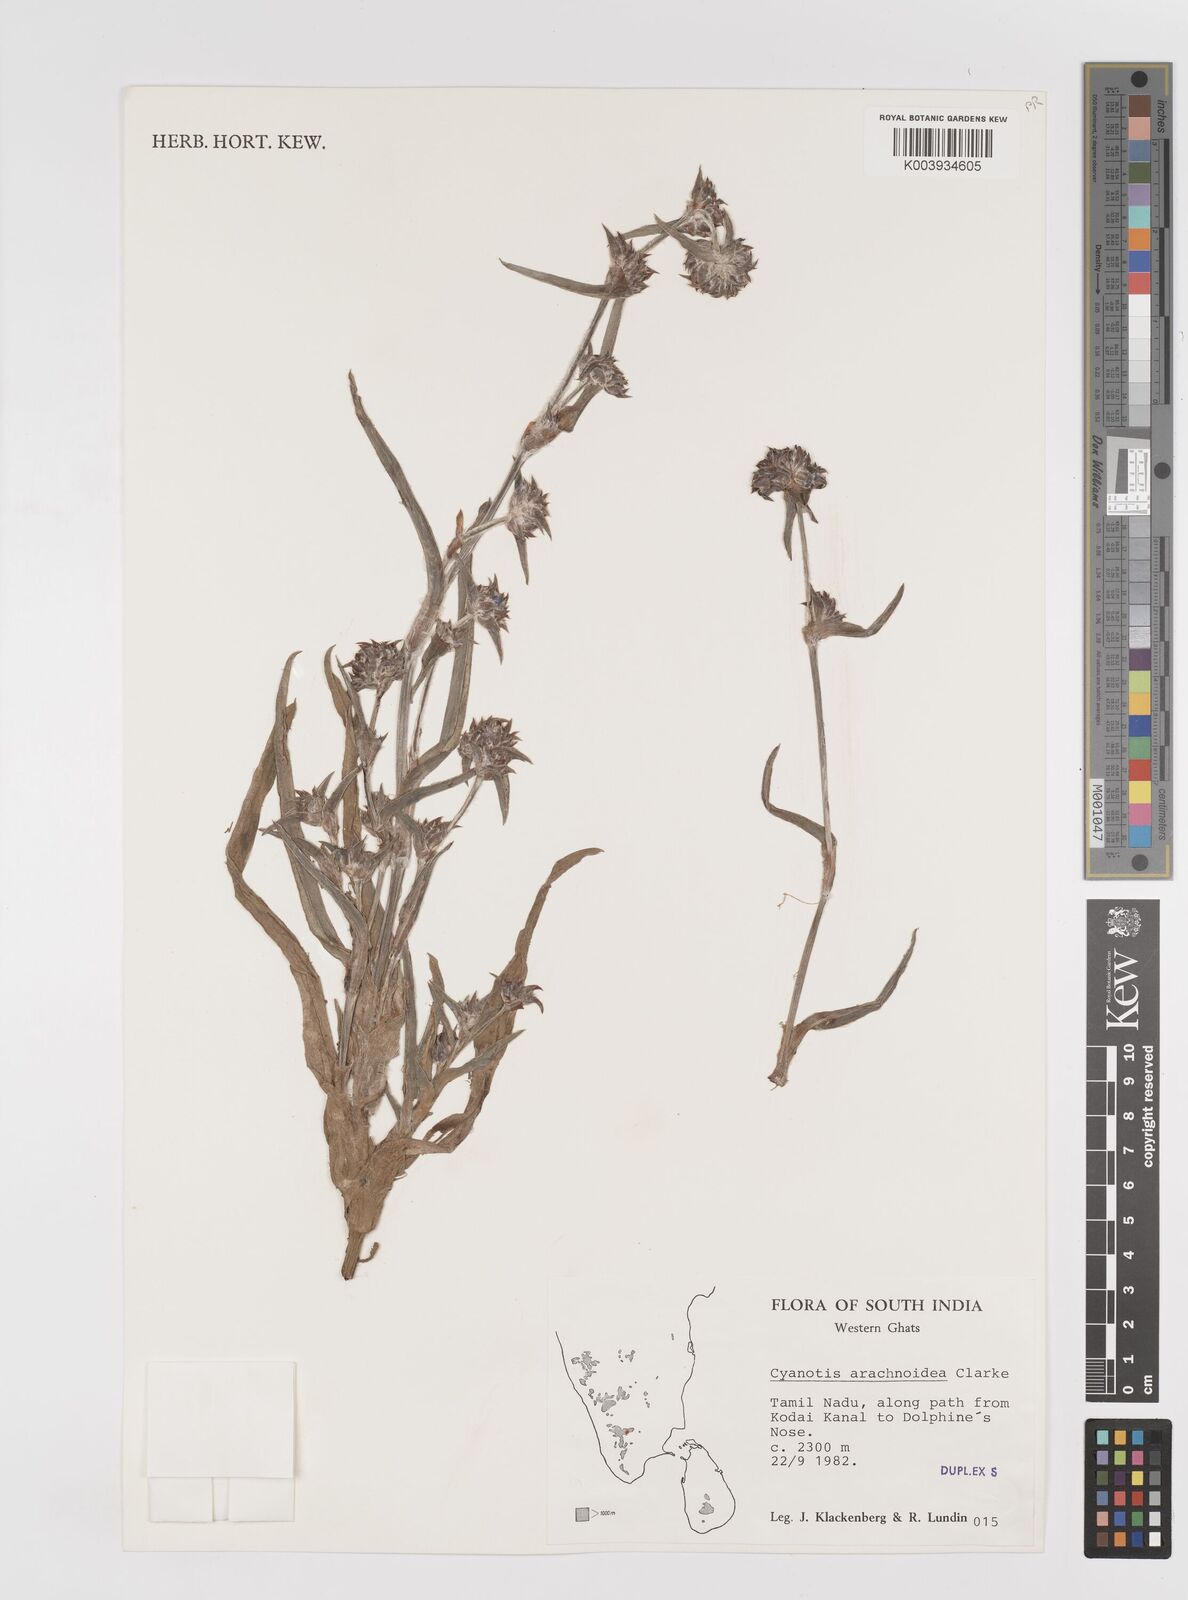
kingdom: Plantae
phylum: Tracheophyta
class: Liliopsida
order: Commelinales
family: Commelinaceae
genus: Cyanotis
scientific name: Cyanotis arachnoidea
